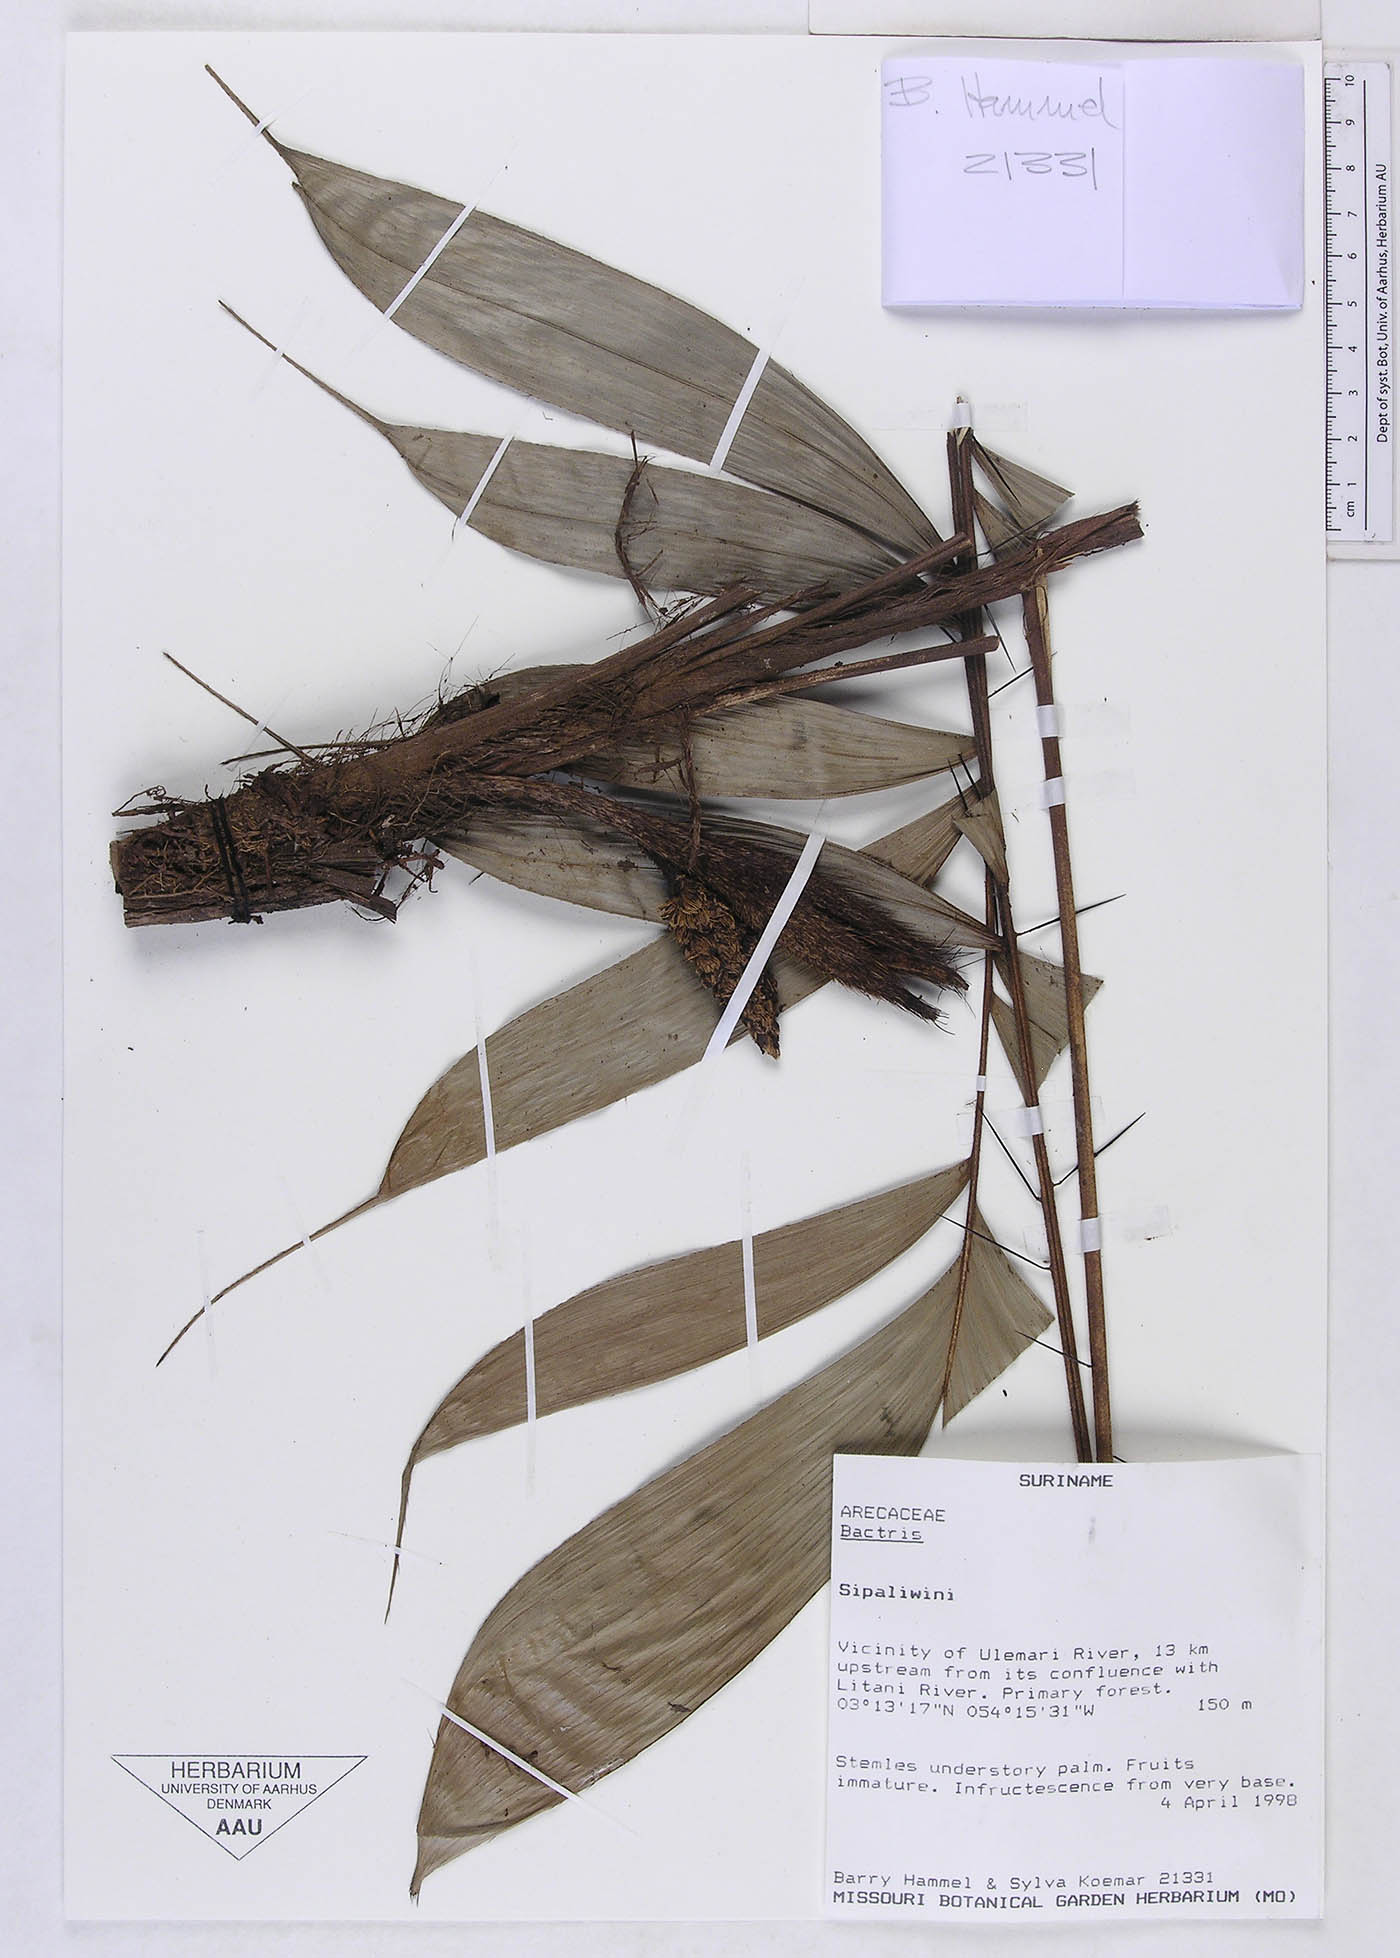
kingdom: Plantae
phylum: Tracheophyta
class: Liliopsida
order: Arecales
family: Arecaceae
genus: Bactris
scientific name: Bactris
